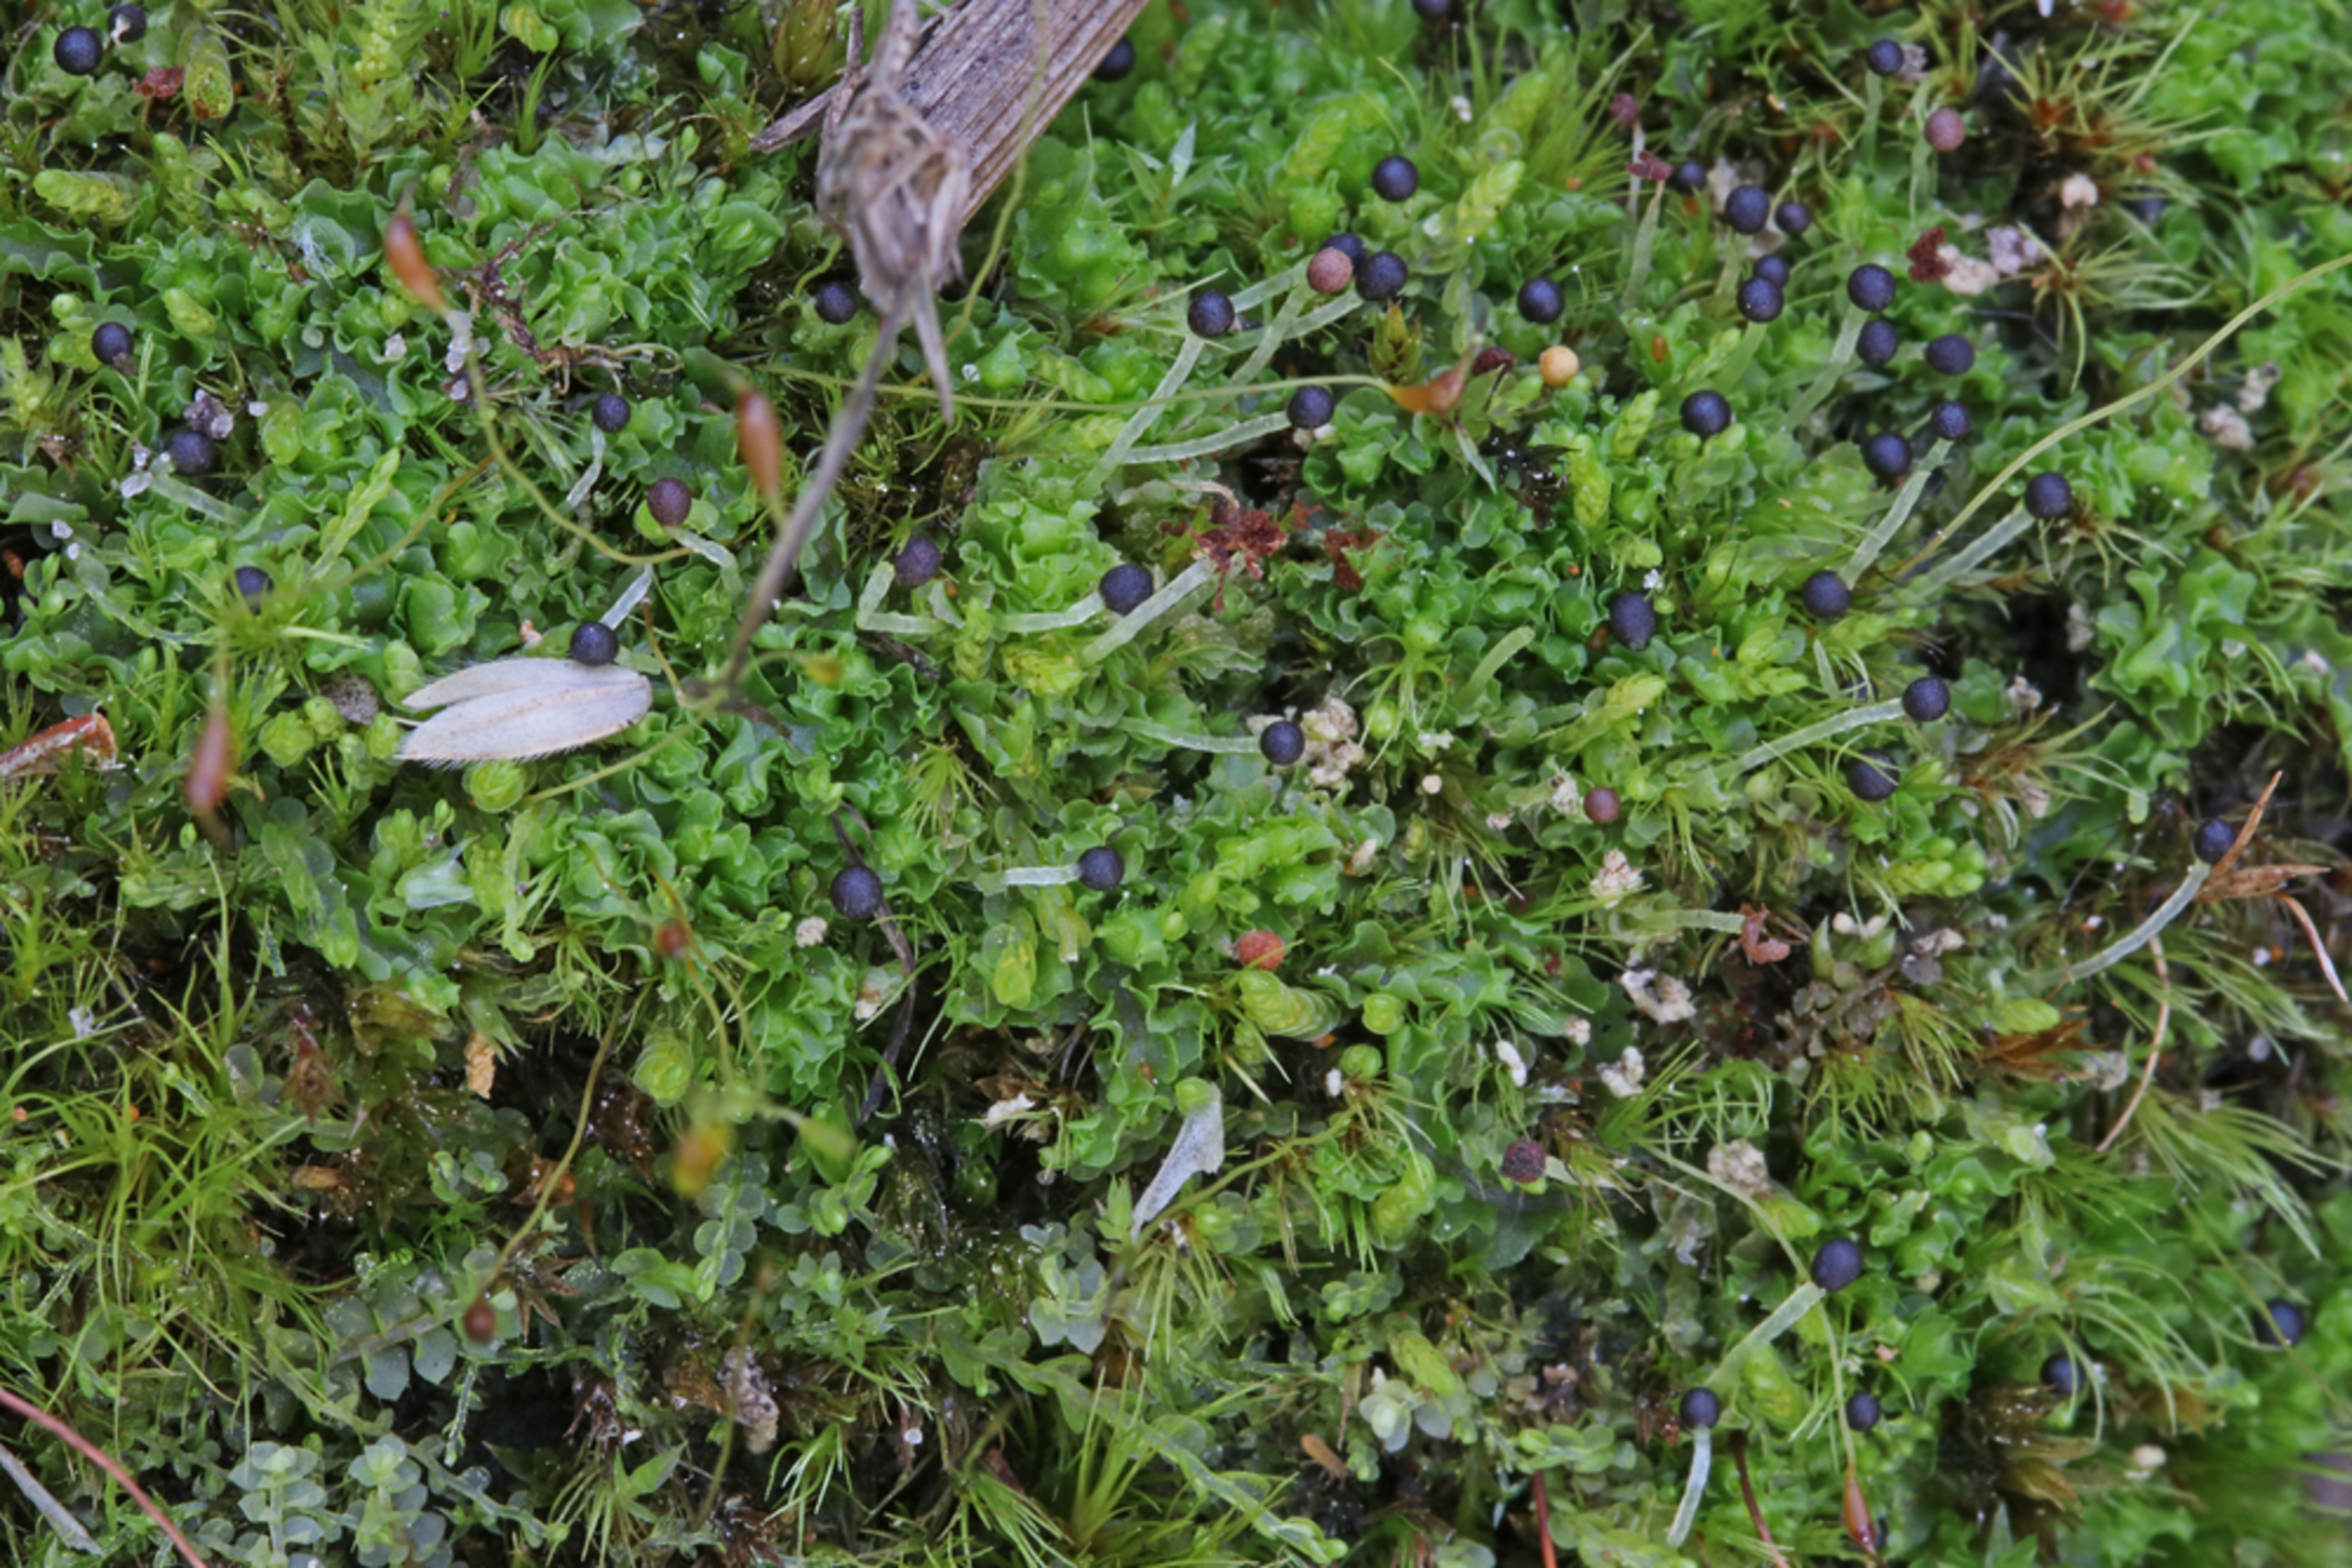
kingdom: Plantae
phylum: Marchantiophyta
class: Jungermanniopsida
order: Fossombroniales
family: Fossombroniaceae
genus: Fossombronia
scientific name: Fossombronia foveolata
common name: Netsporet klokkesvøb
